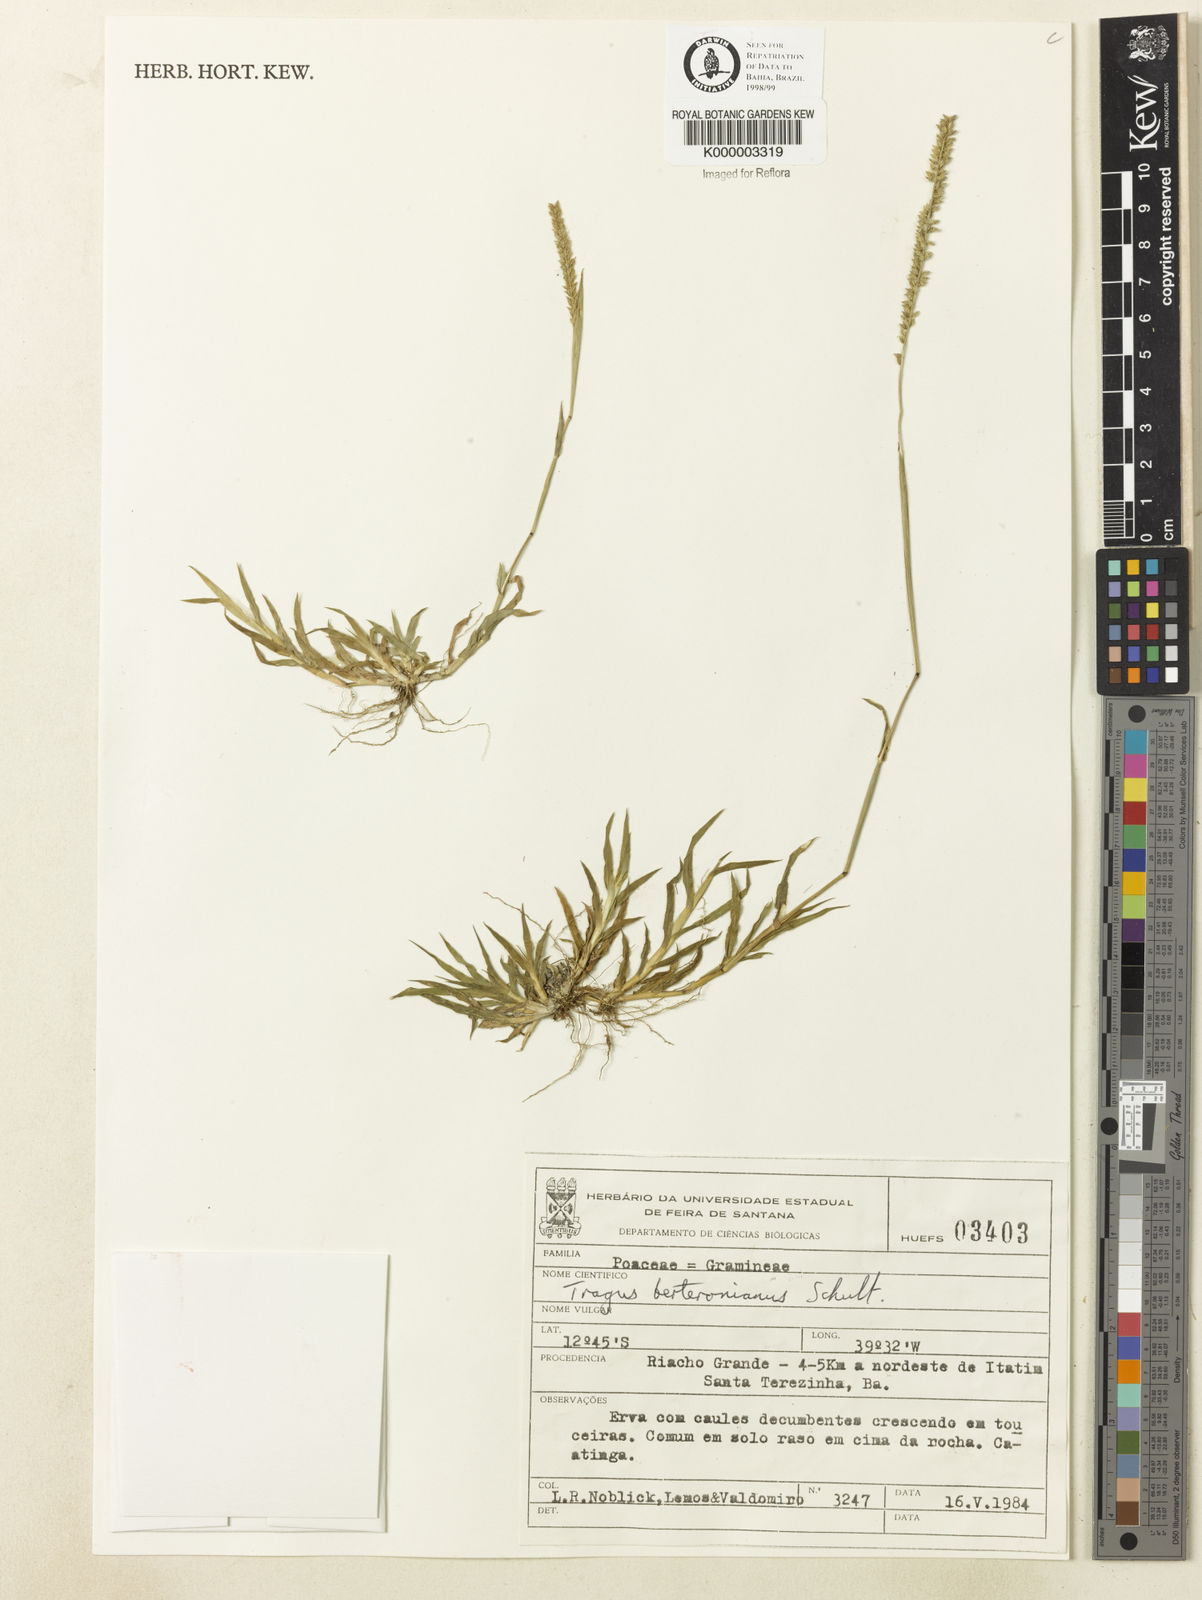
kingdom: Plantae
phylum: Tracheophyta
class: Liliopsida
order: Poales
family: Poaceae
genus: Tragus
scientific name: Tragus berteronianus
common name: African bur-grass
